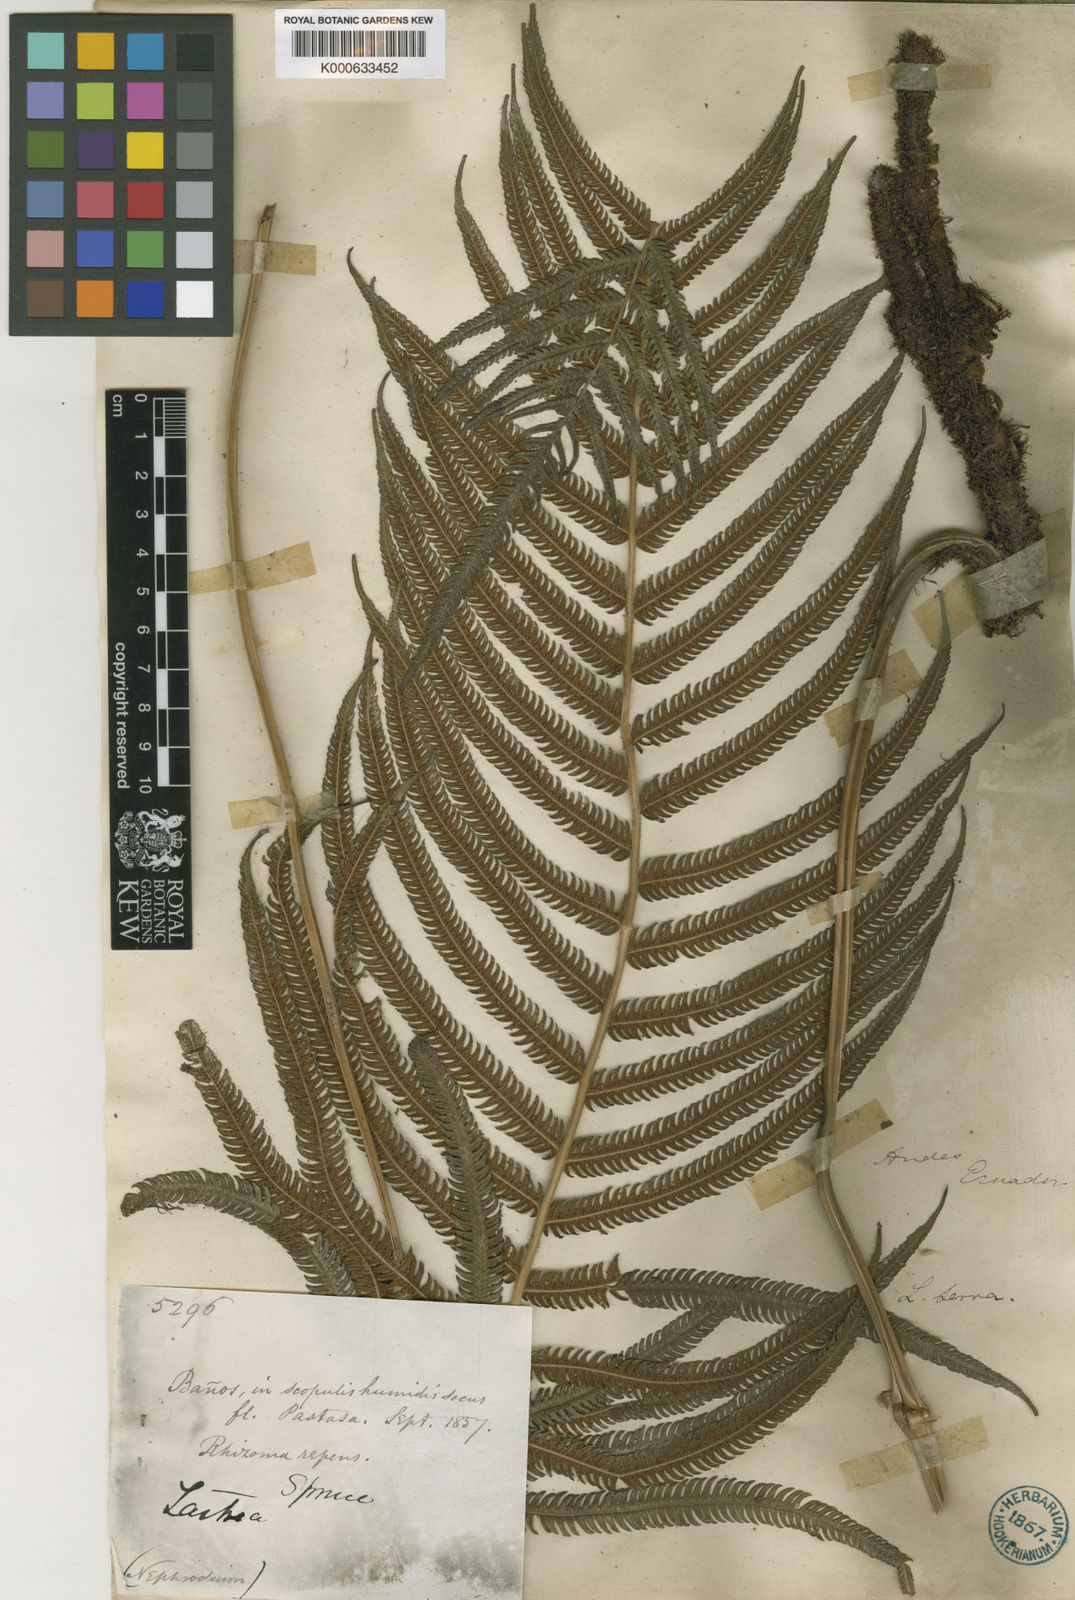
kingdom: Plantae
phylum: Tracheophyta
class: Polypodiopsida
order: Polypodiales
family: Thelypteridaceae
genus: Christella
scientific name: Christella
